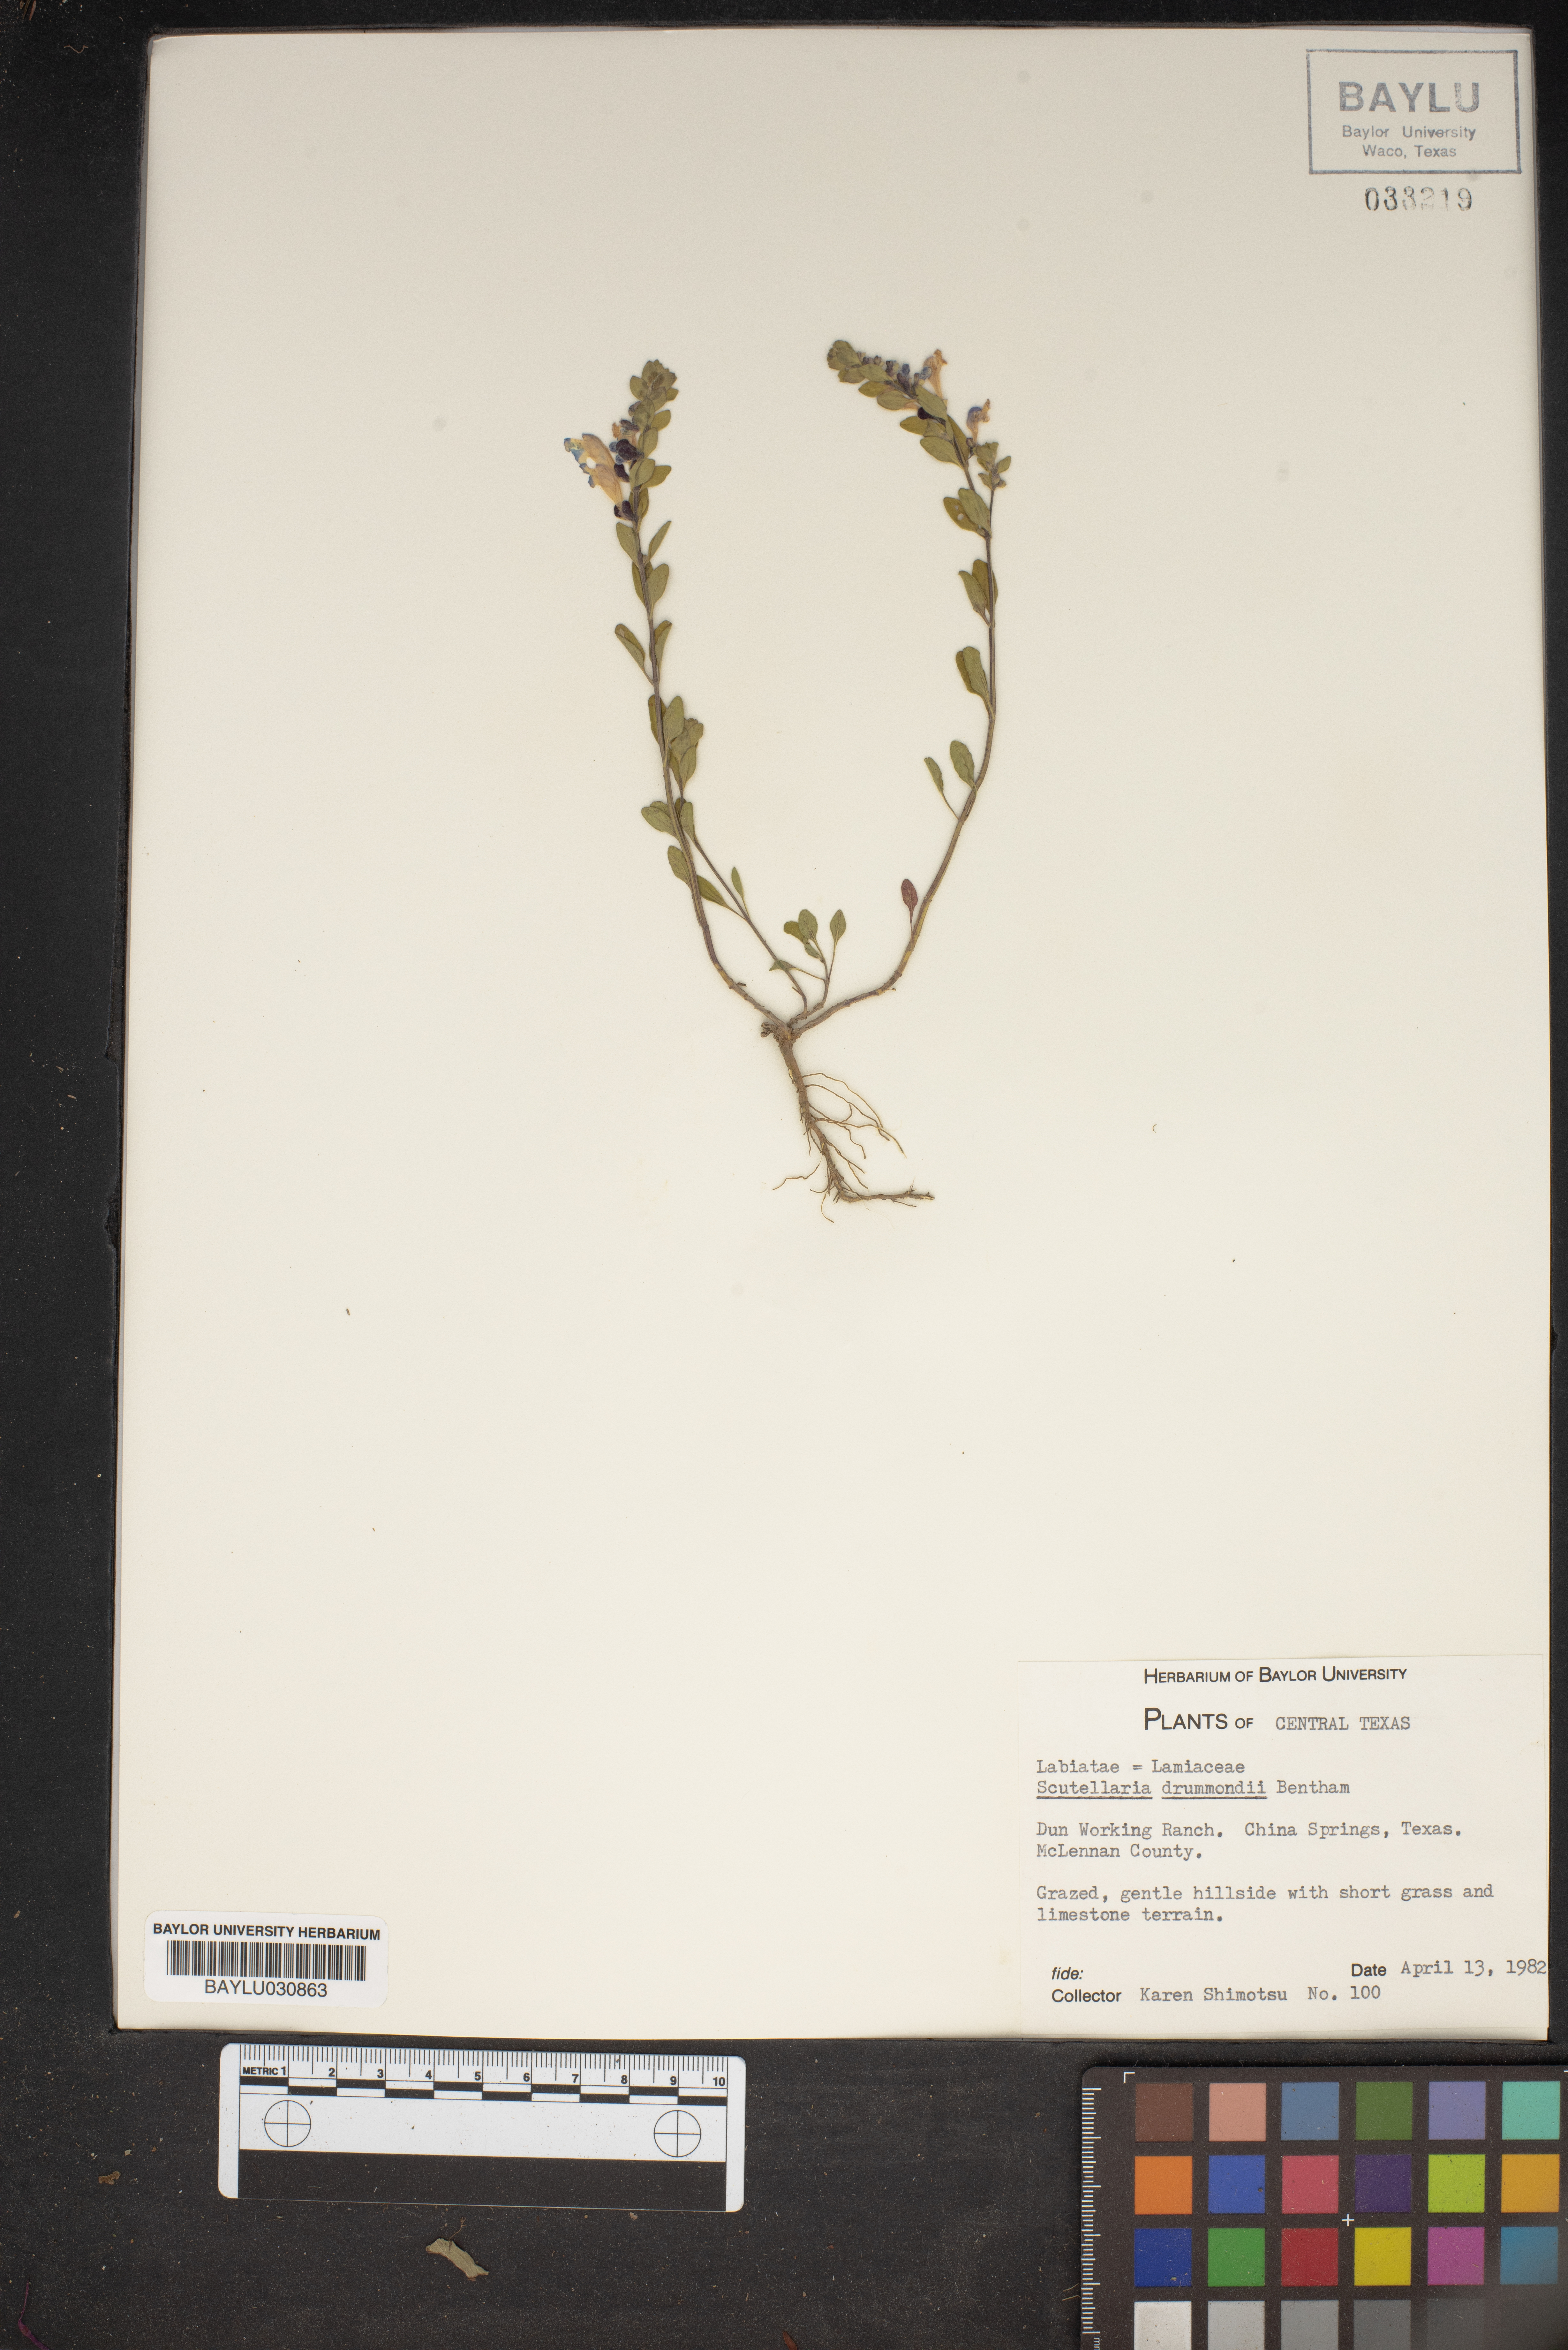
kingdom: Plantae
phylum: Tracheophyta
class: Magnoliopsida
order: Lamiales
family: Lamiaceae
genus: Scutellaria
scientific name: Scutellaria drummondii
